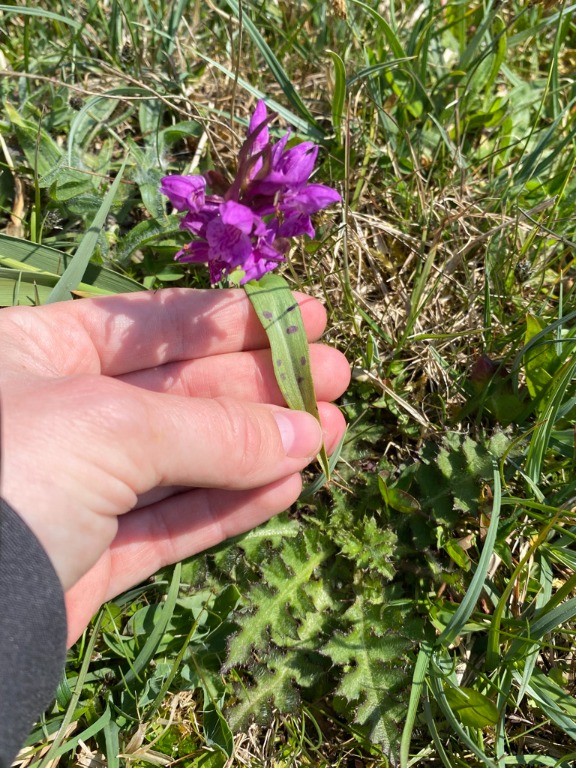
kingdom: Plantae
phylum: Tracheophyta
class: Liliopsida
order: Asparagales
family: Orchidaceae
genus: Dactylorhiza
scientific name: Dactylorhiza majalis
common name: Maj-gøgeurt
